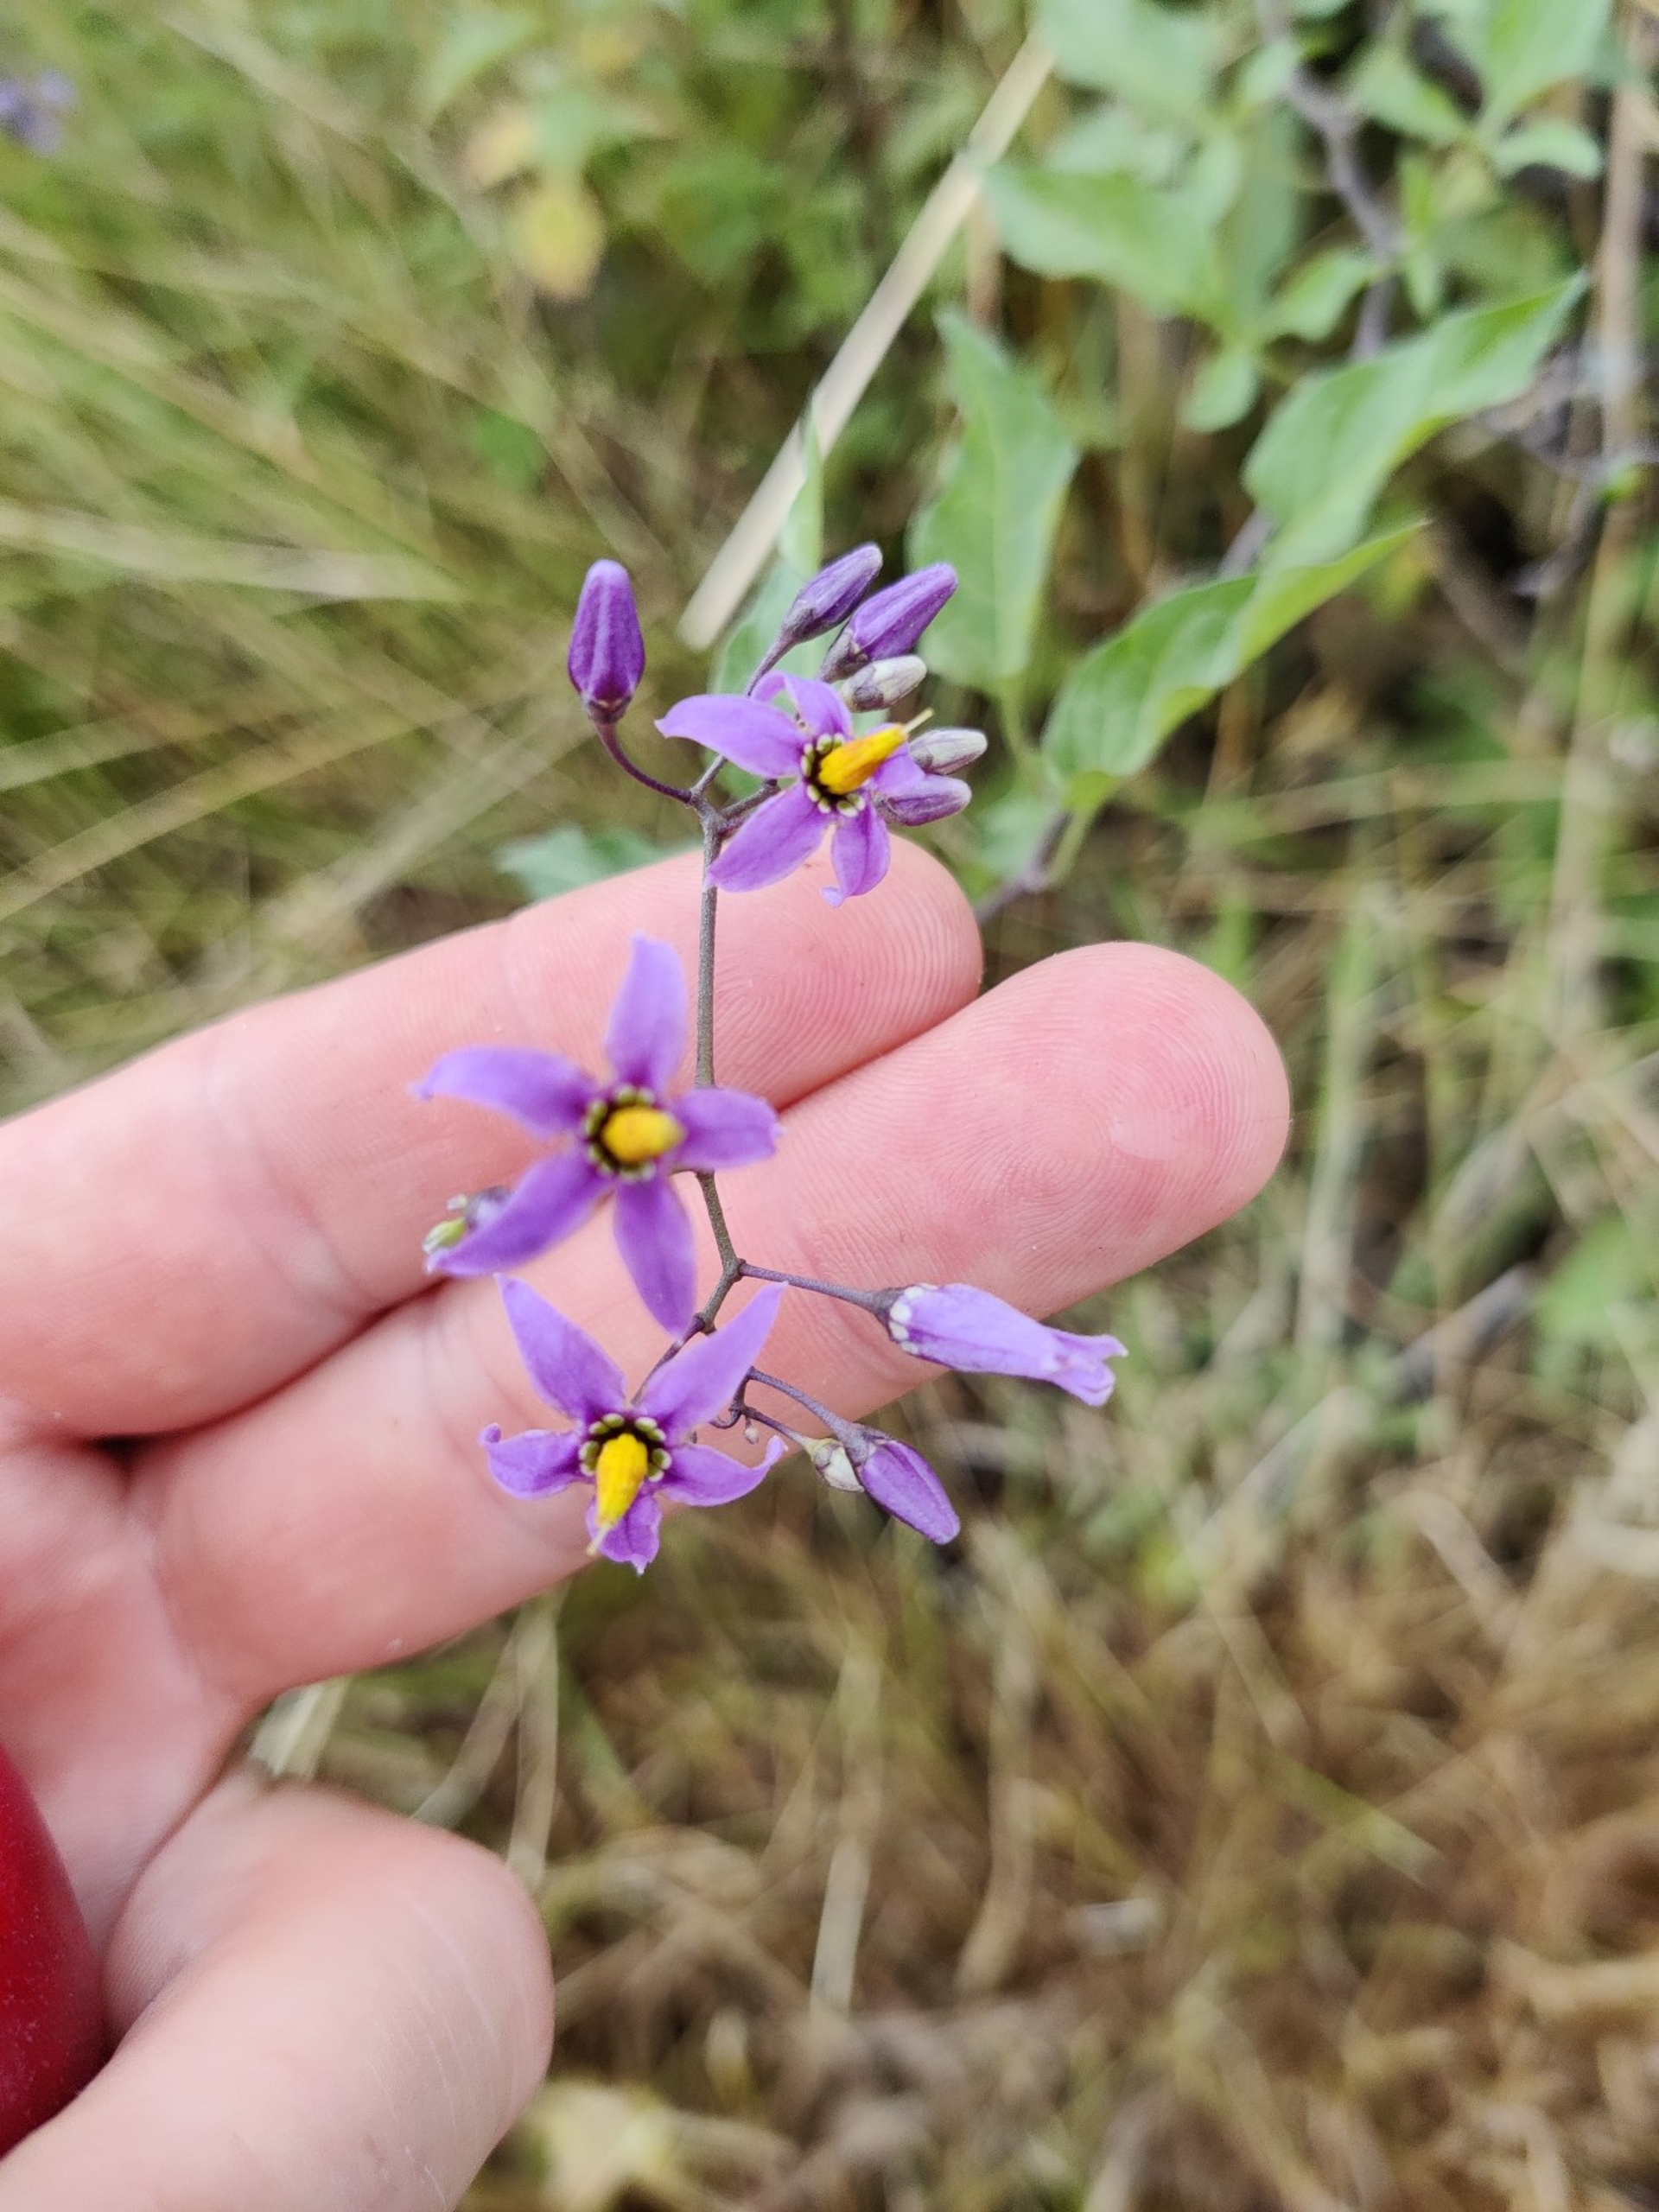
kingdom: Plantae
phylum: Tracheophyta
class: Magnoliopsida
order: Solanales
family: Solanaceae
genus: Solanum
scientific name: Solanum dulcamara
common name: Bittersød natskygge
